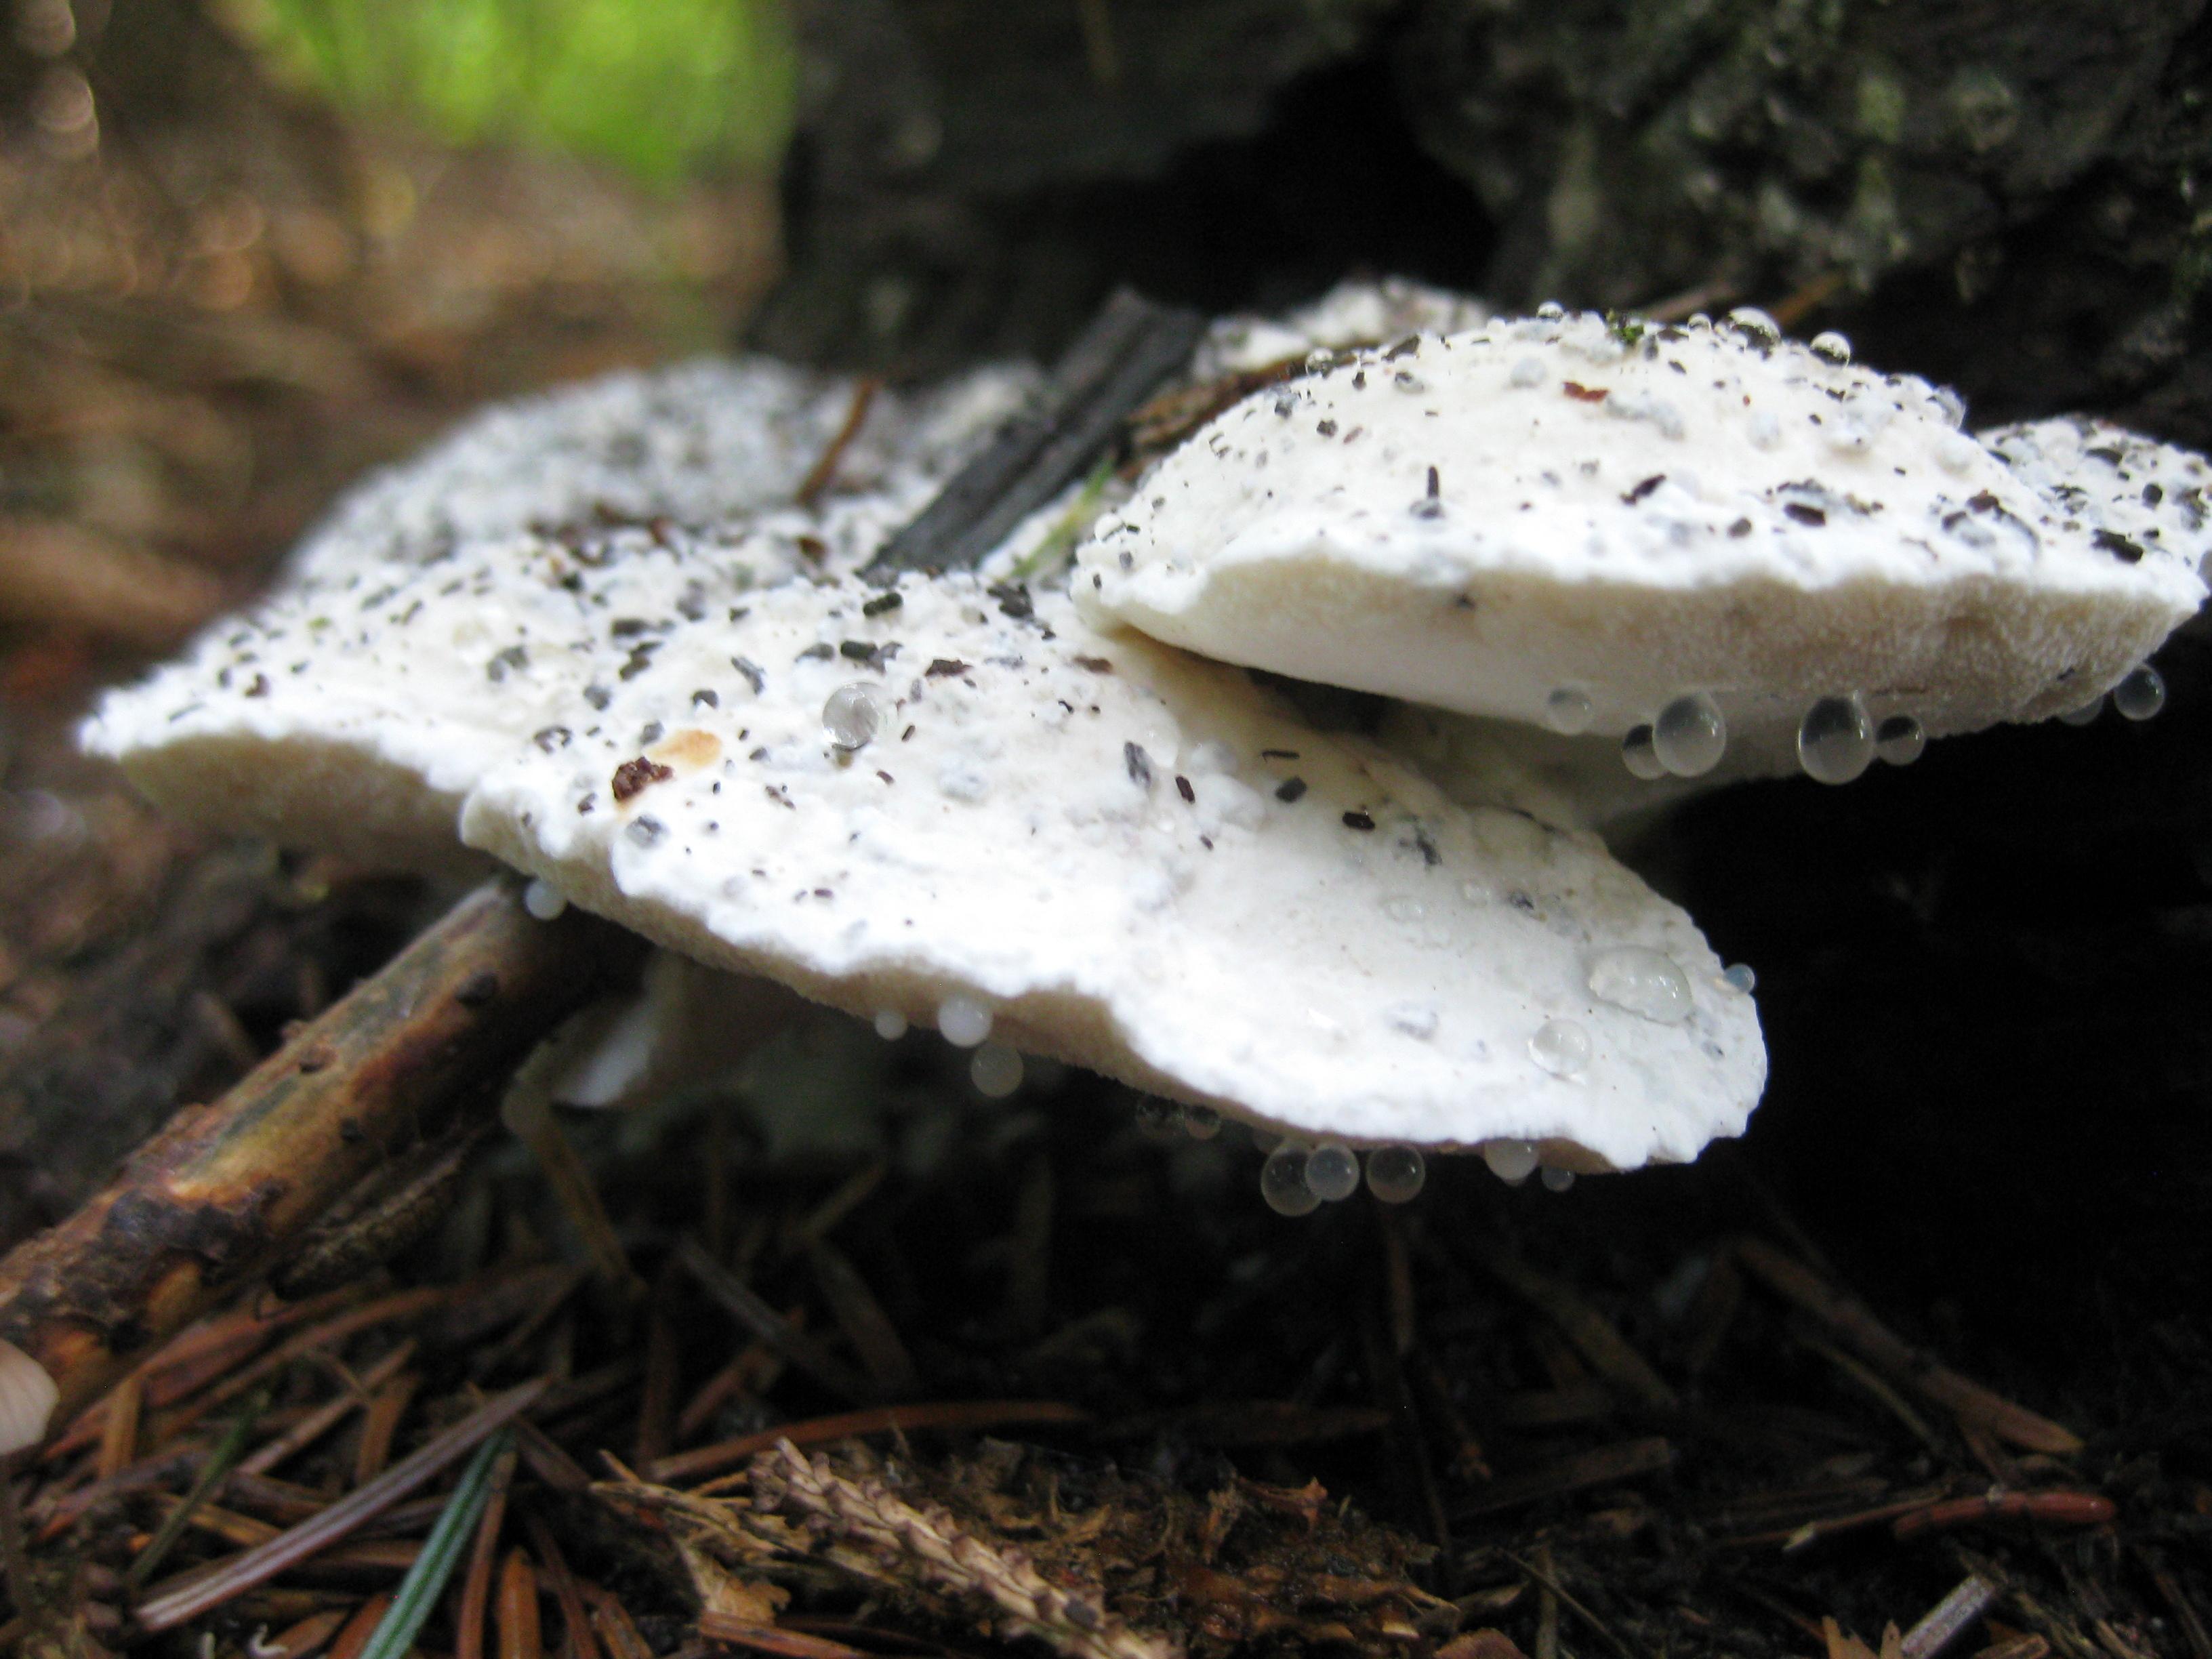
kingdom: Fungi
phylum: Basidiomycota
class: Agaricomycetes
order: Polyporales
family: Dacryobolaceae
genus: Postia
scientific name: Postia
